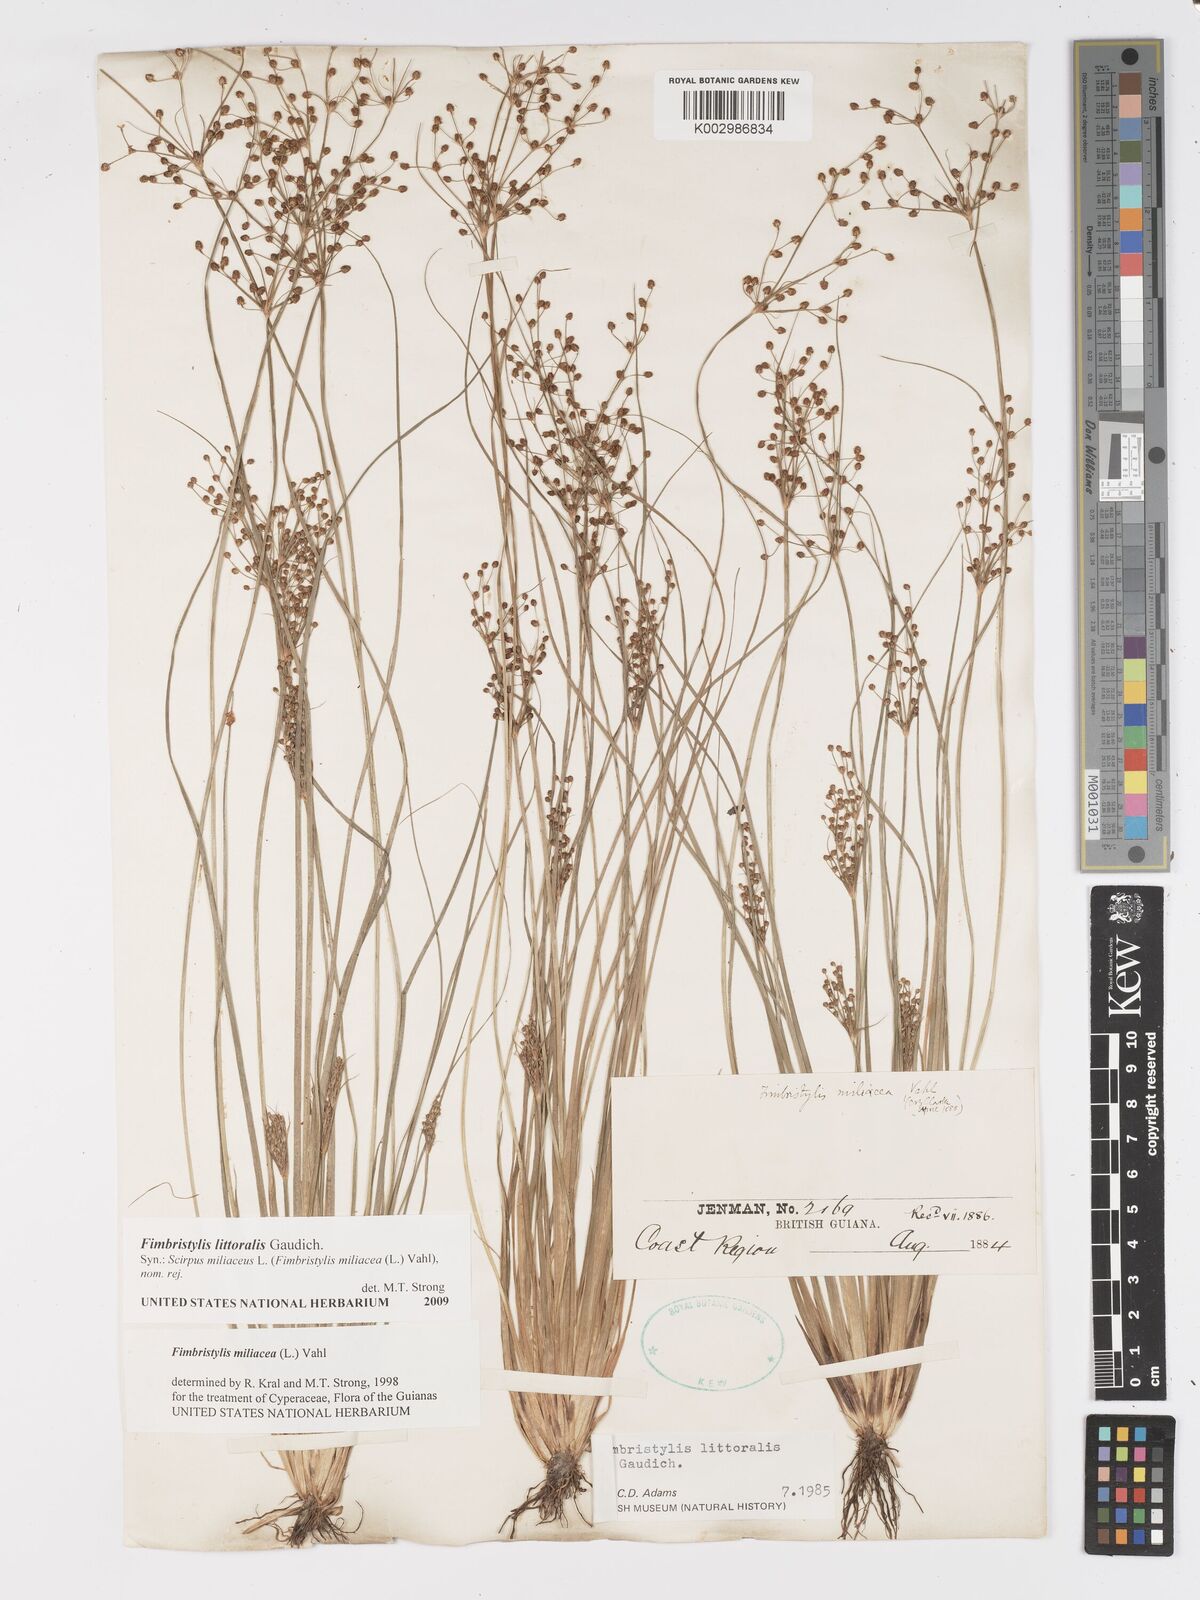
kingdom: Plantae
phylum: Tracheophyta
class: Liliopsida
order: Poales
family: Cyperaceae
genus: Fimbristylis
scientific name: Fimbristylis littoralis
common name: Fimbry
